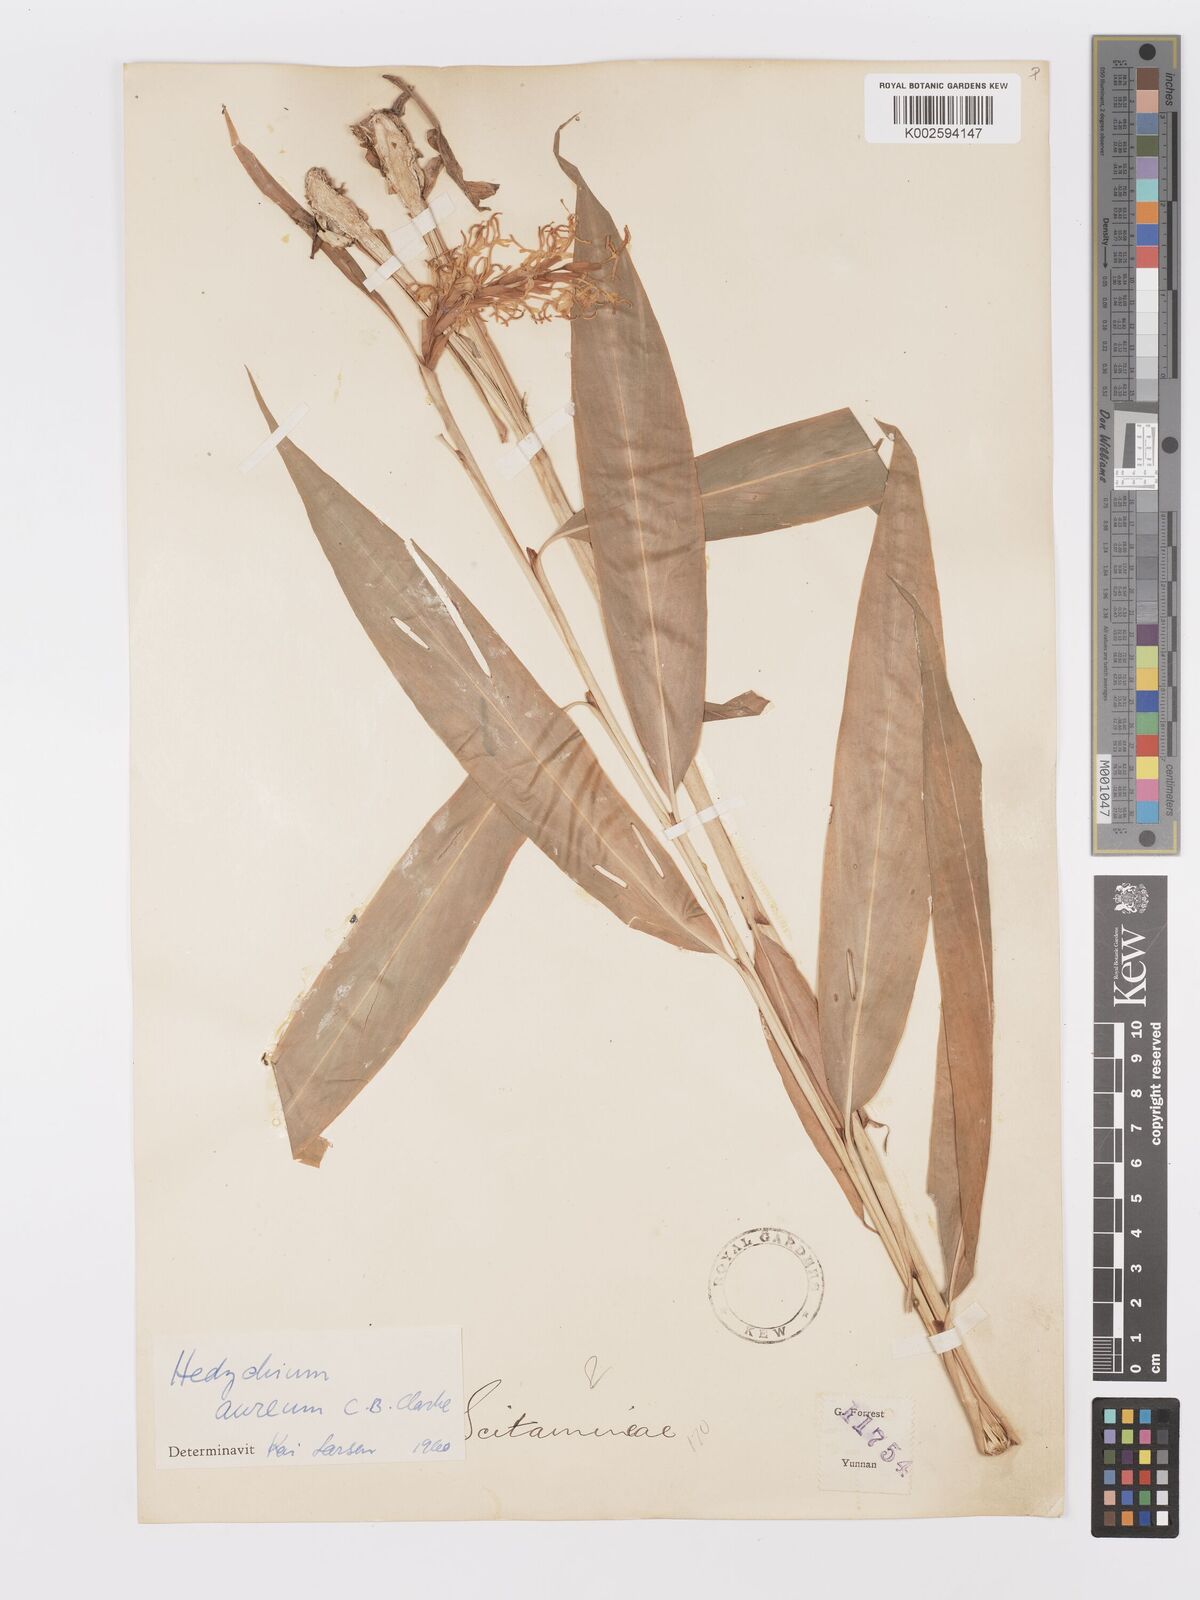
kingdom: Plantae
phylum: Tracheophyta
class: Liliopsida
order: Zingiberales
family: Zingiberaceae
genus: Hedychium
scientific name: Hedychium erythrostemon
